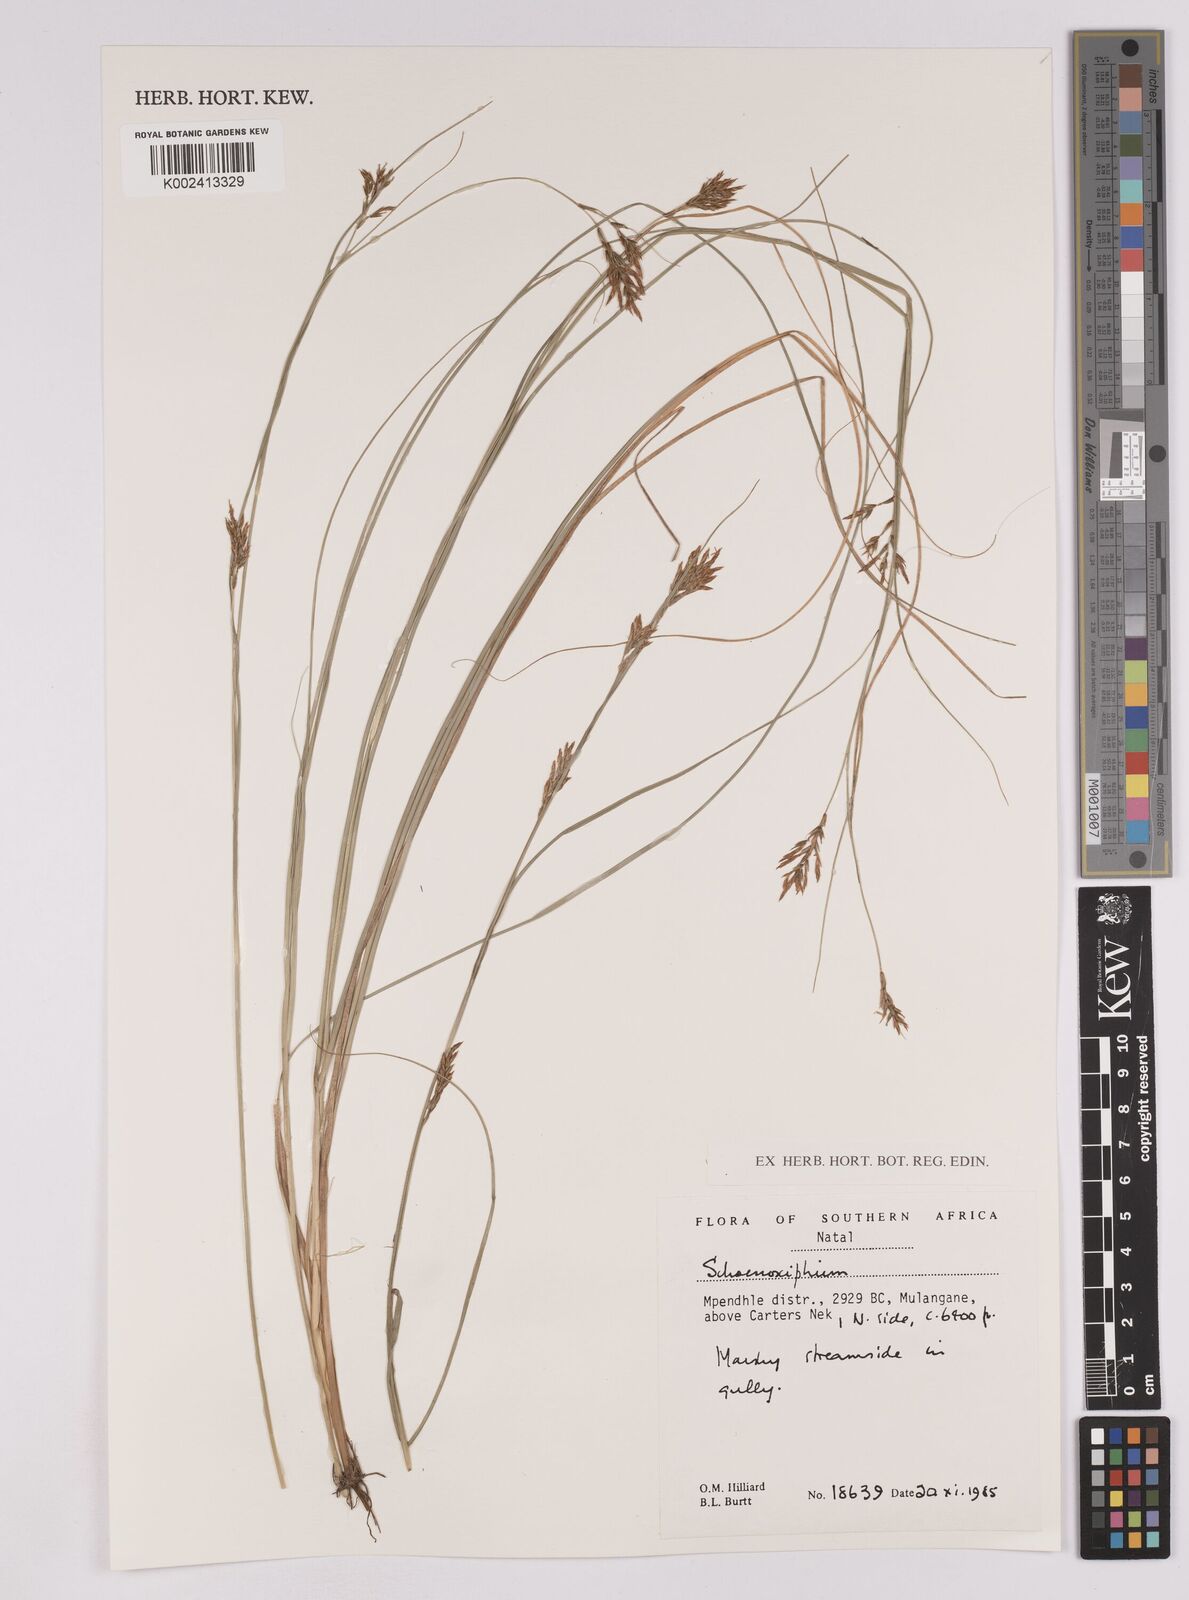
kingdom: Plantae
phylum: Tracheophyta
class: Liliopsida
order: Poales
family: Cyperaceae
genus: Carex
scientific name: Carex
